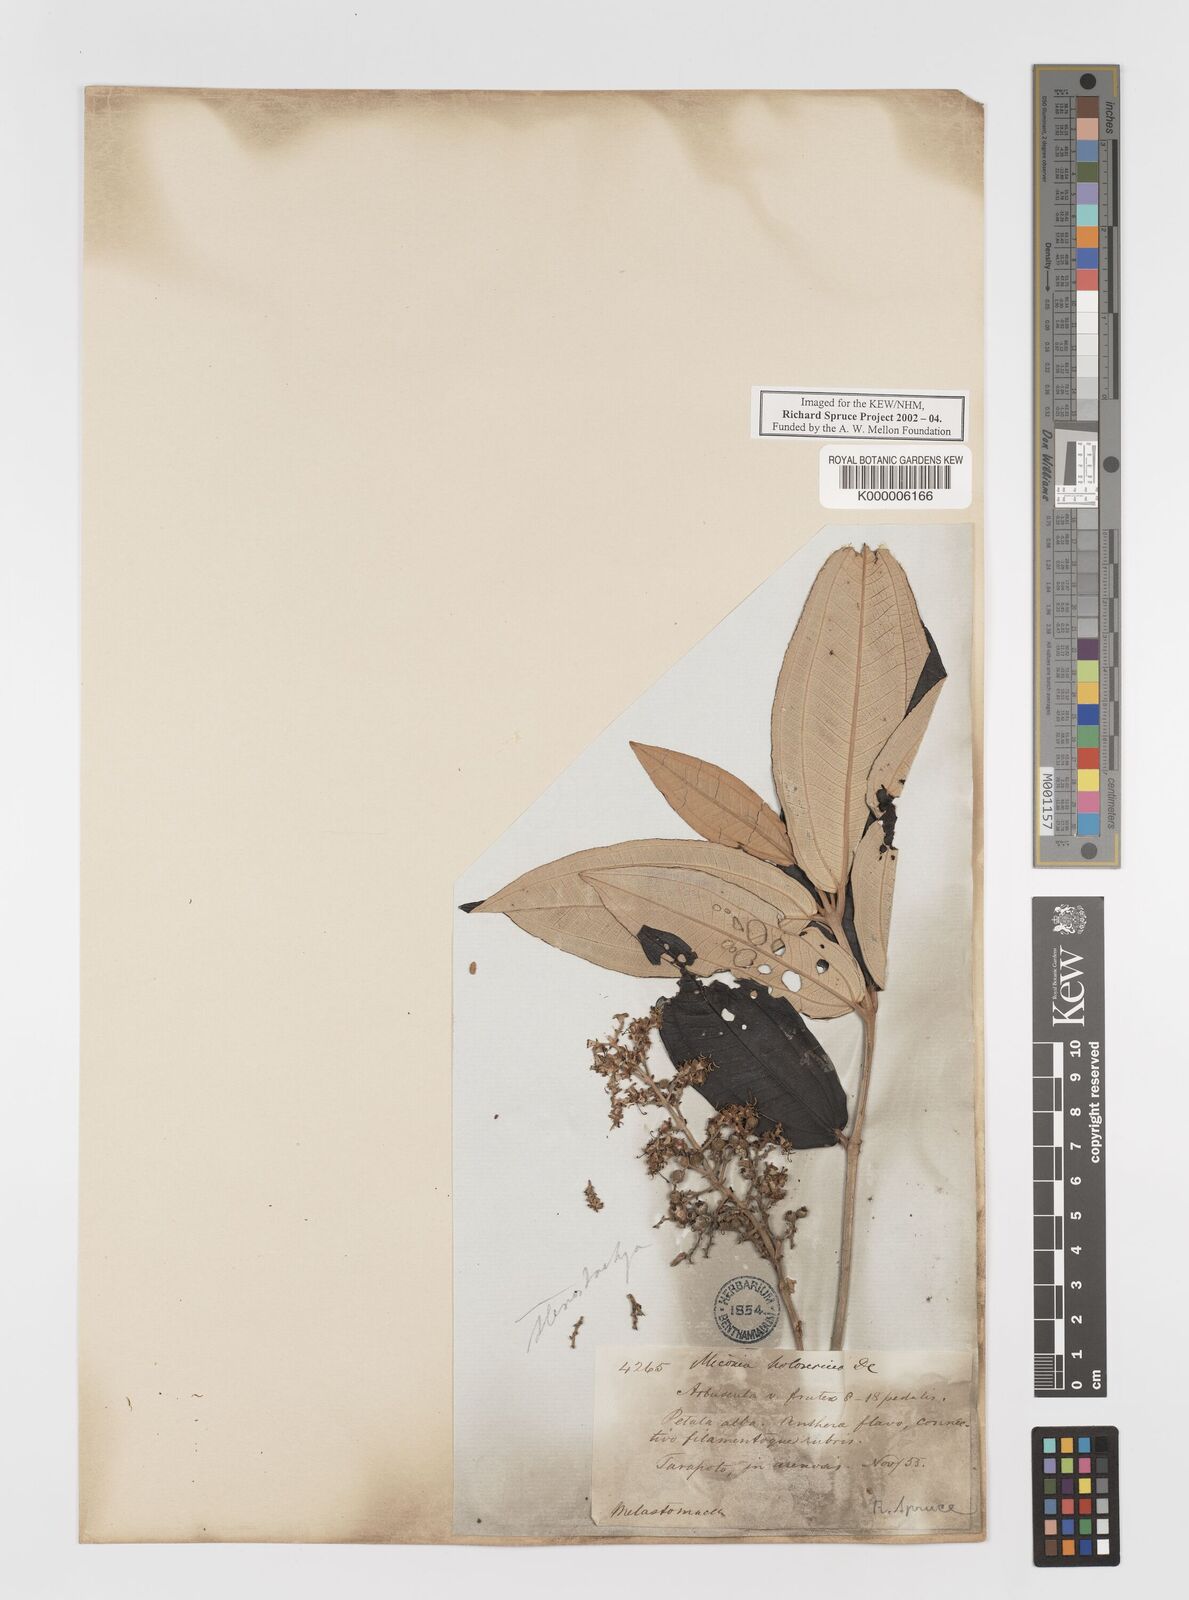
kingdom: Plantae
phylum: Tracheophyta
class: Magnoliopsida
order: Myrtales
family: Melastomataceae
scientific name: Melastomataceae
